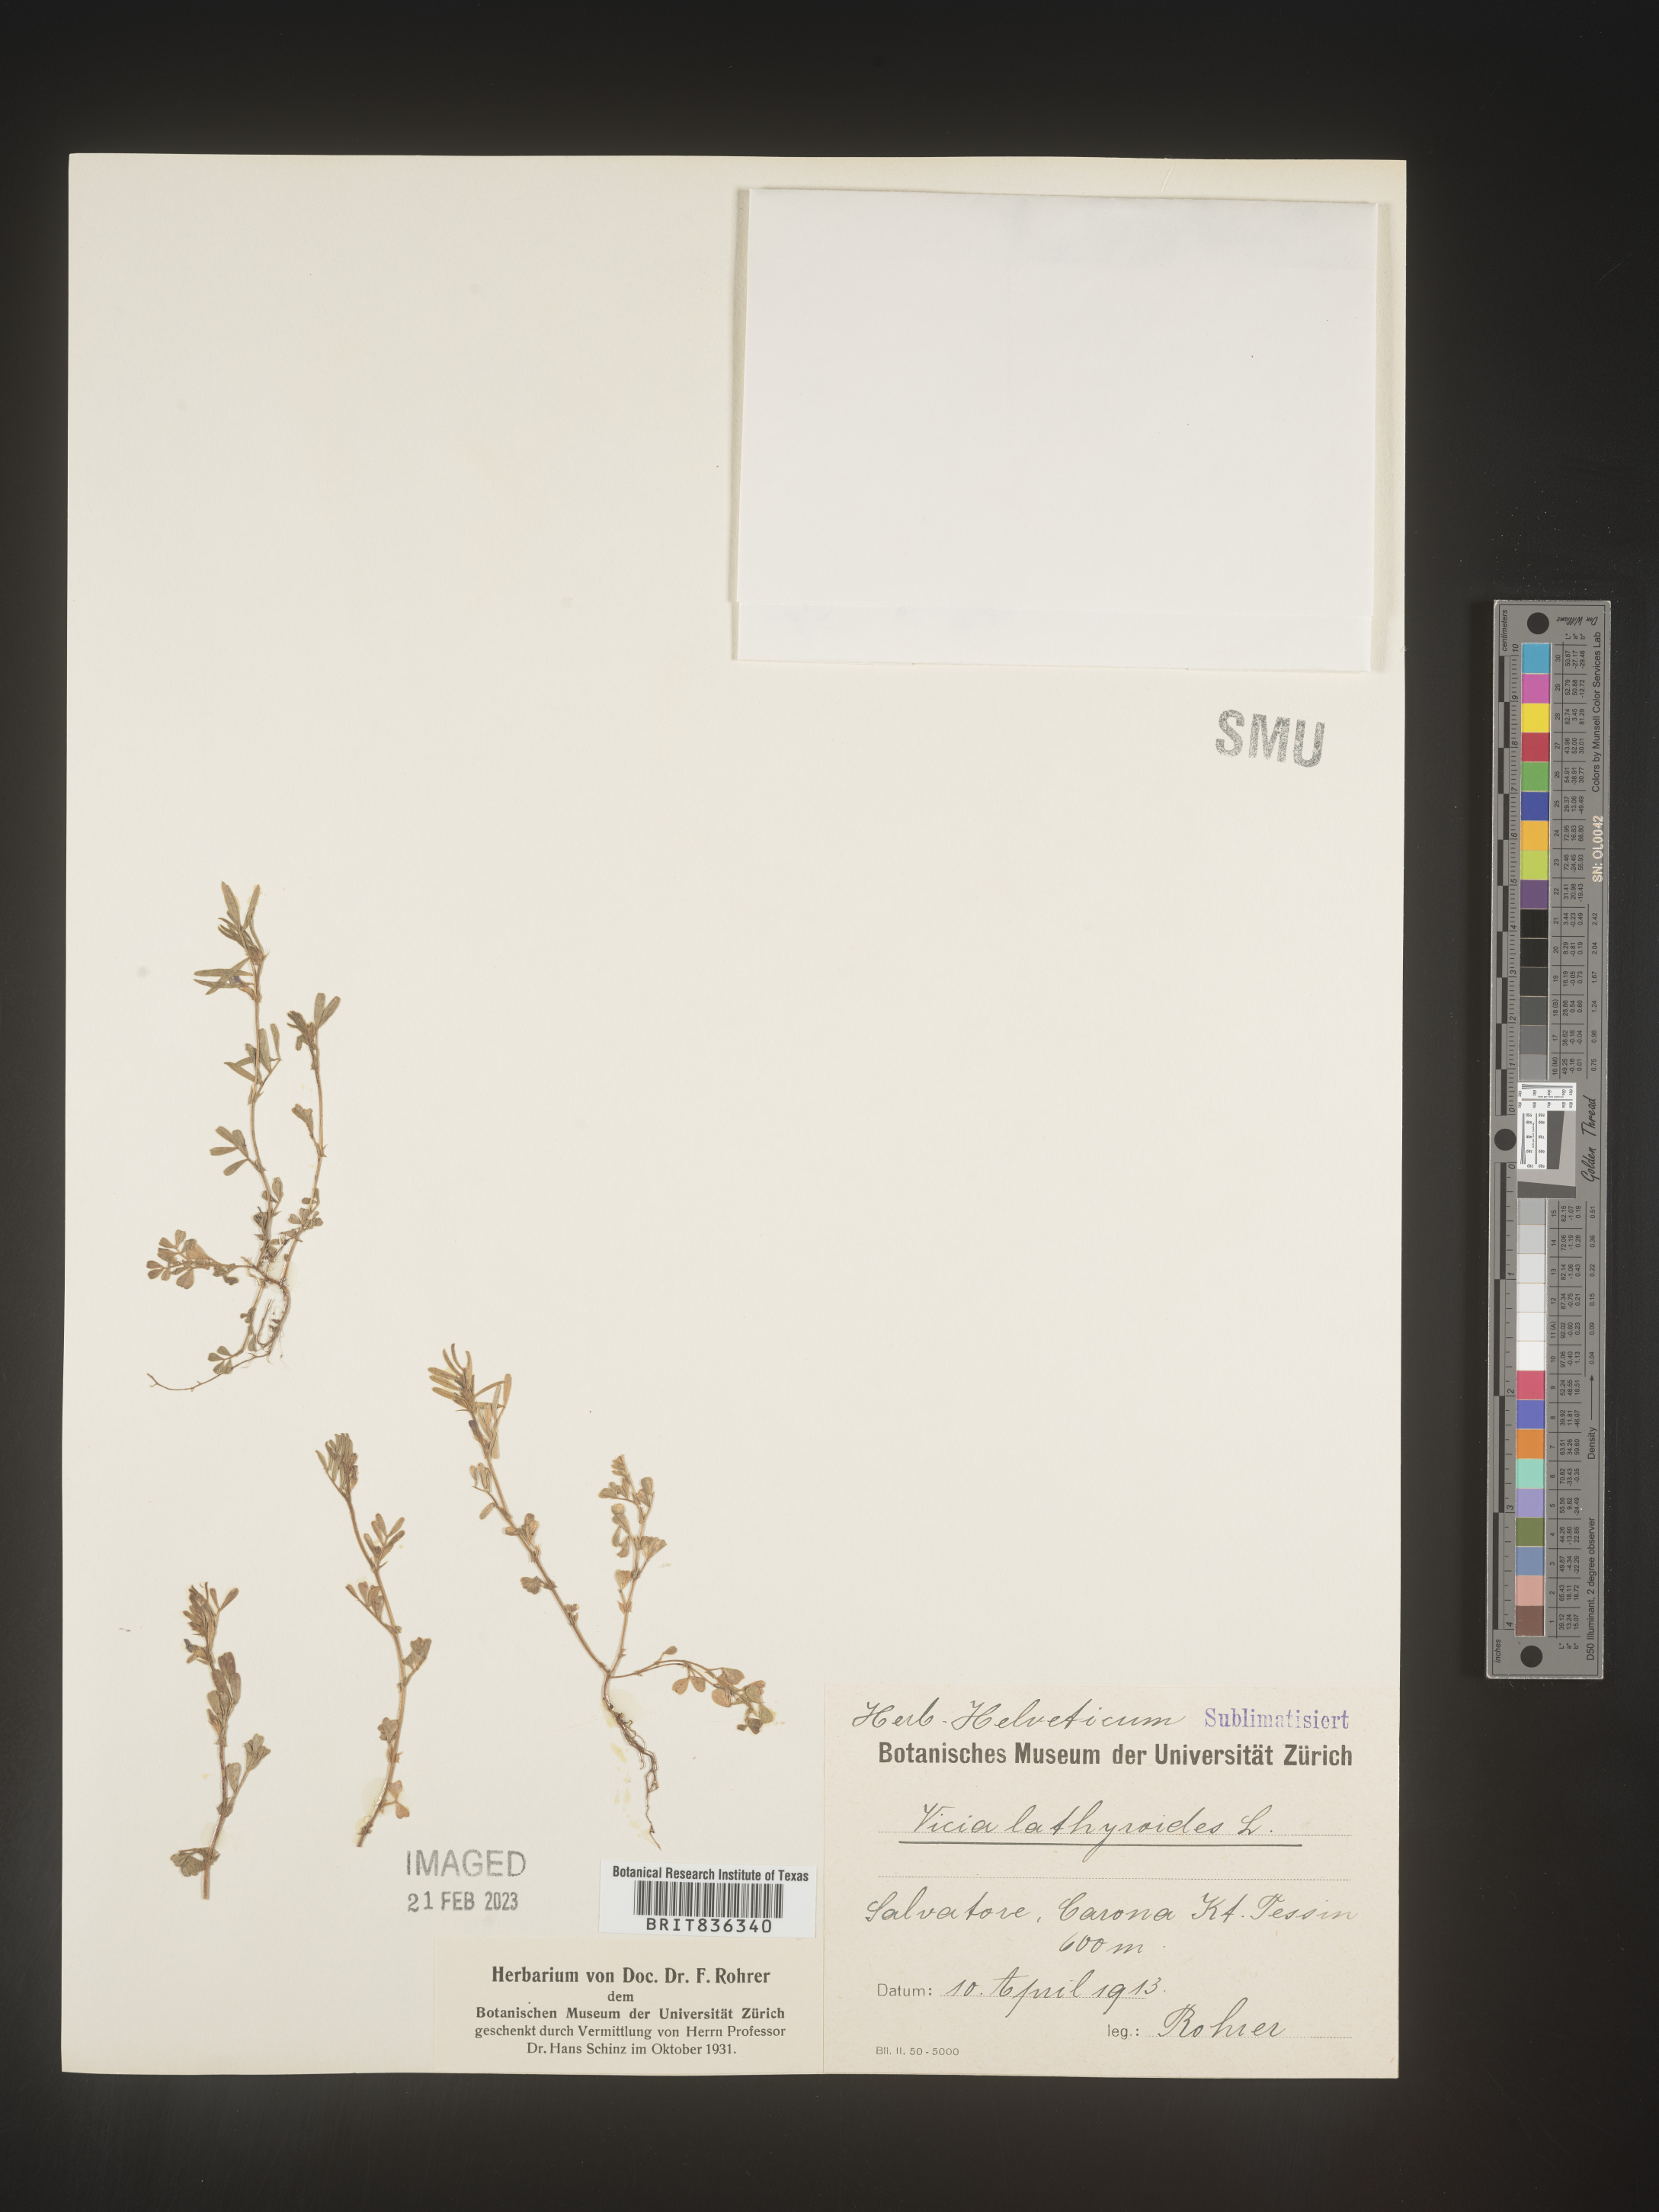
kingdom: Plantae
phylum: Tracheophyta
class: Magnoliopsida
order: Fabales
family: Fabaceae
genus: Vicia
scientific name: Vicia
